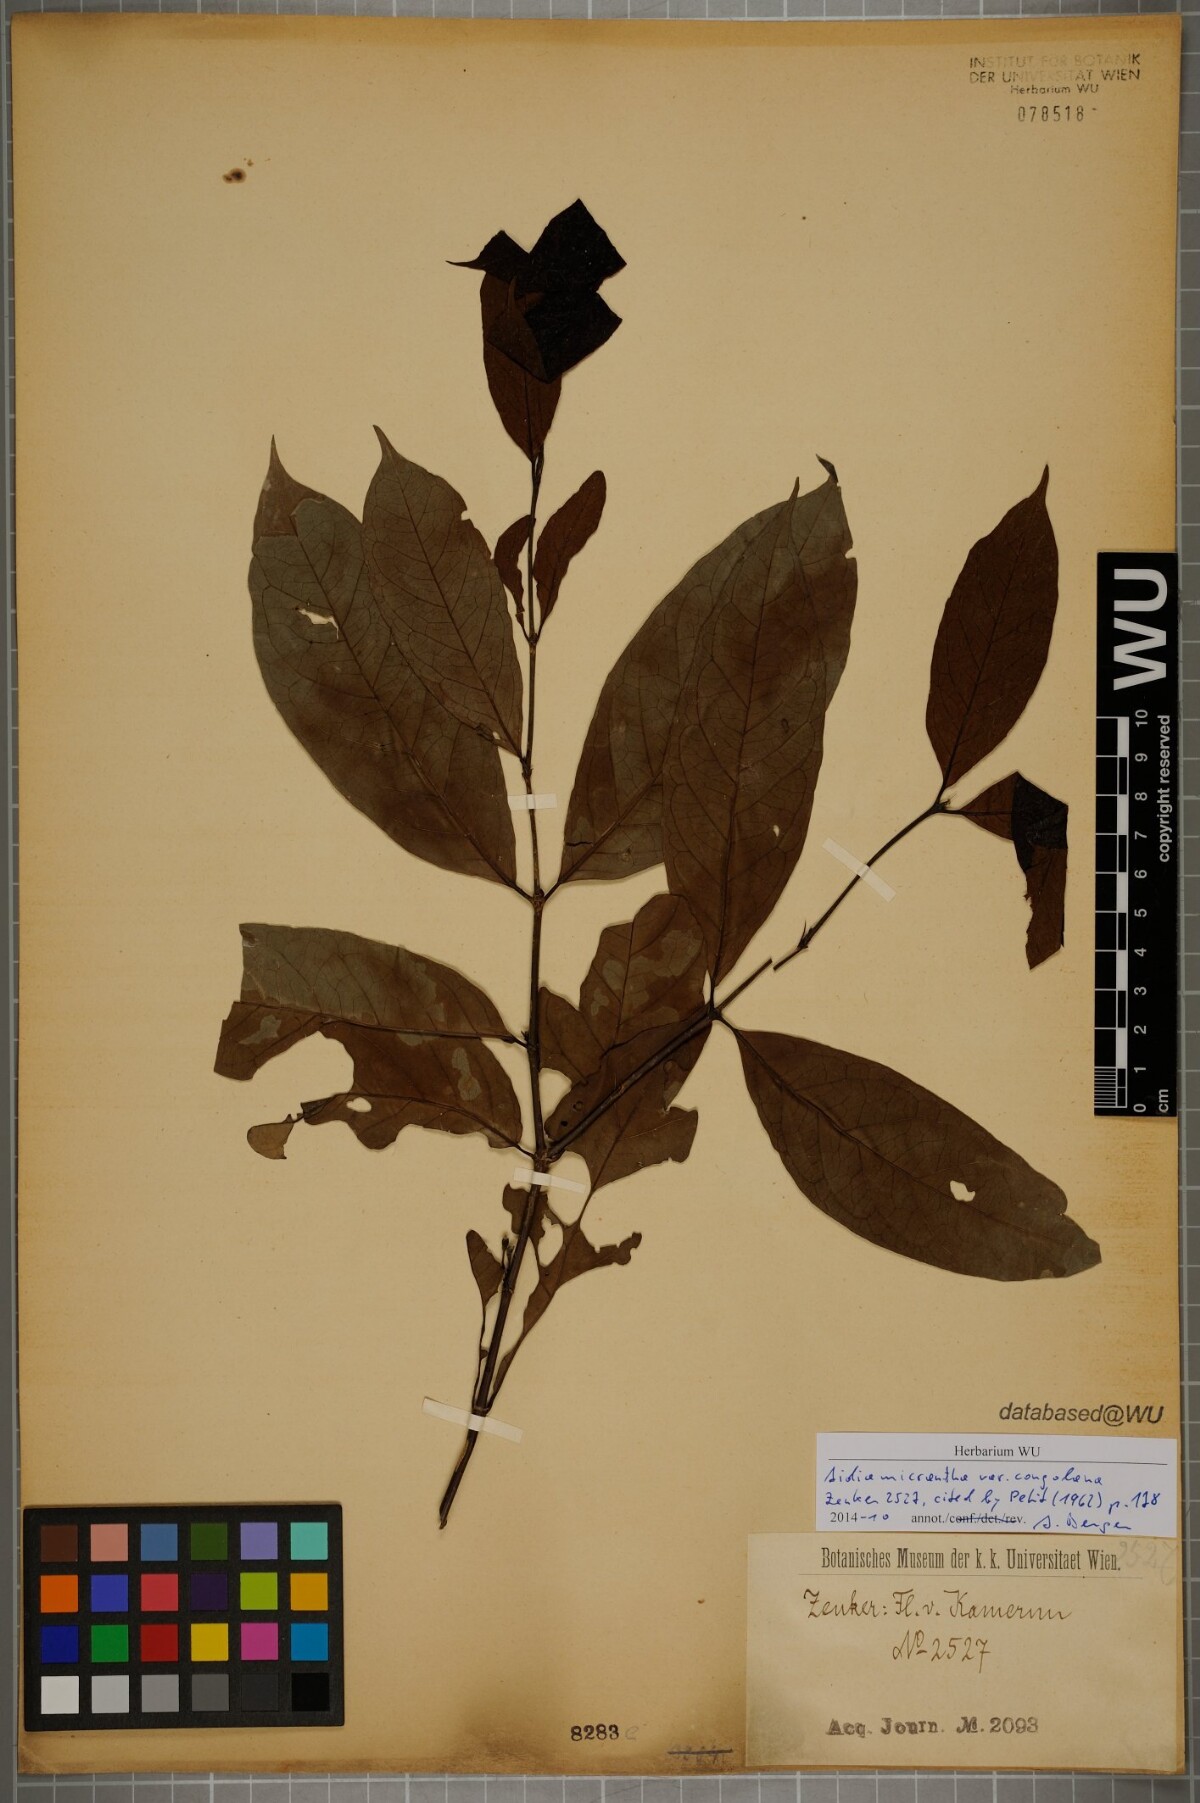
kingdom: Plantae
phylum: Tracheophyta
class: Magnoliopsida
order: Gentianales
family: Rubiaceae
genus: Aidia
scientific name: Aidia micrantha
